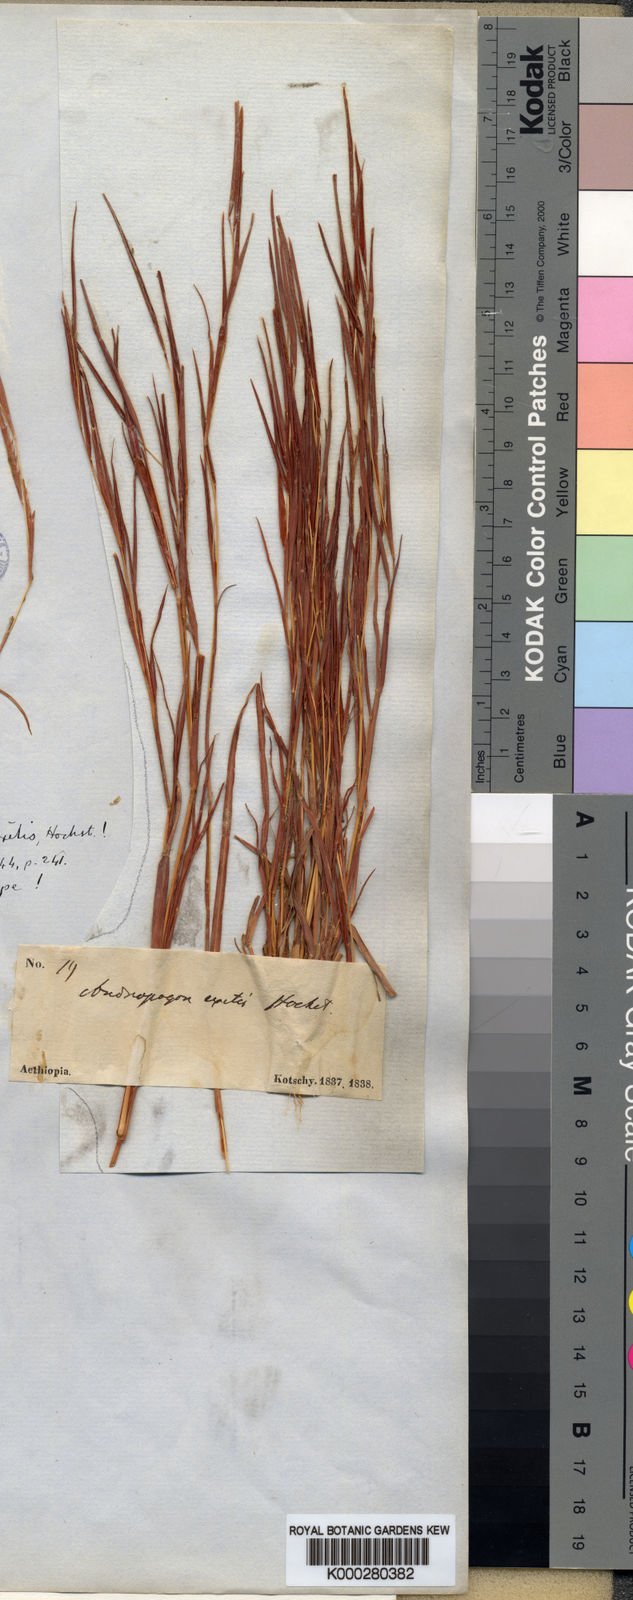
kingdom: Plantae
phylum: Tracheophyta
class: Liliopsida
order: Poales
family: Poaceae
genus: Schizachyrium
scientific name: Schizachyrium exile
